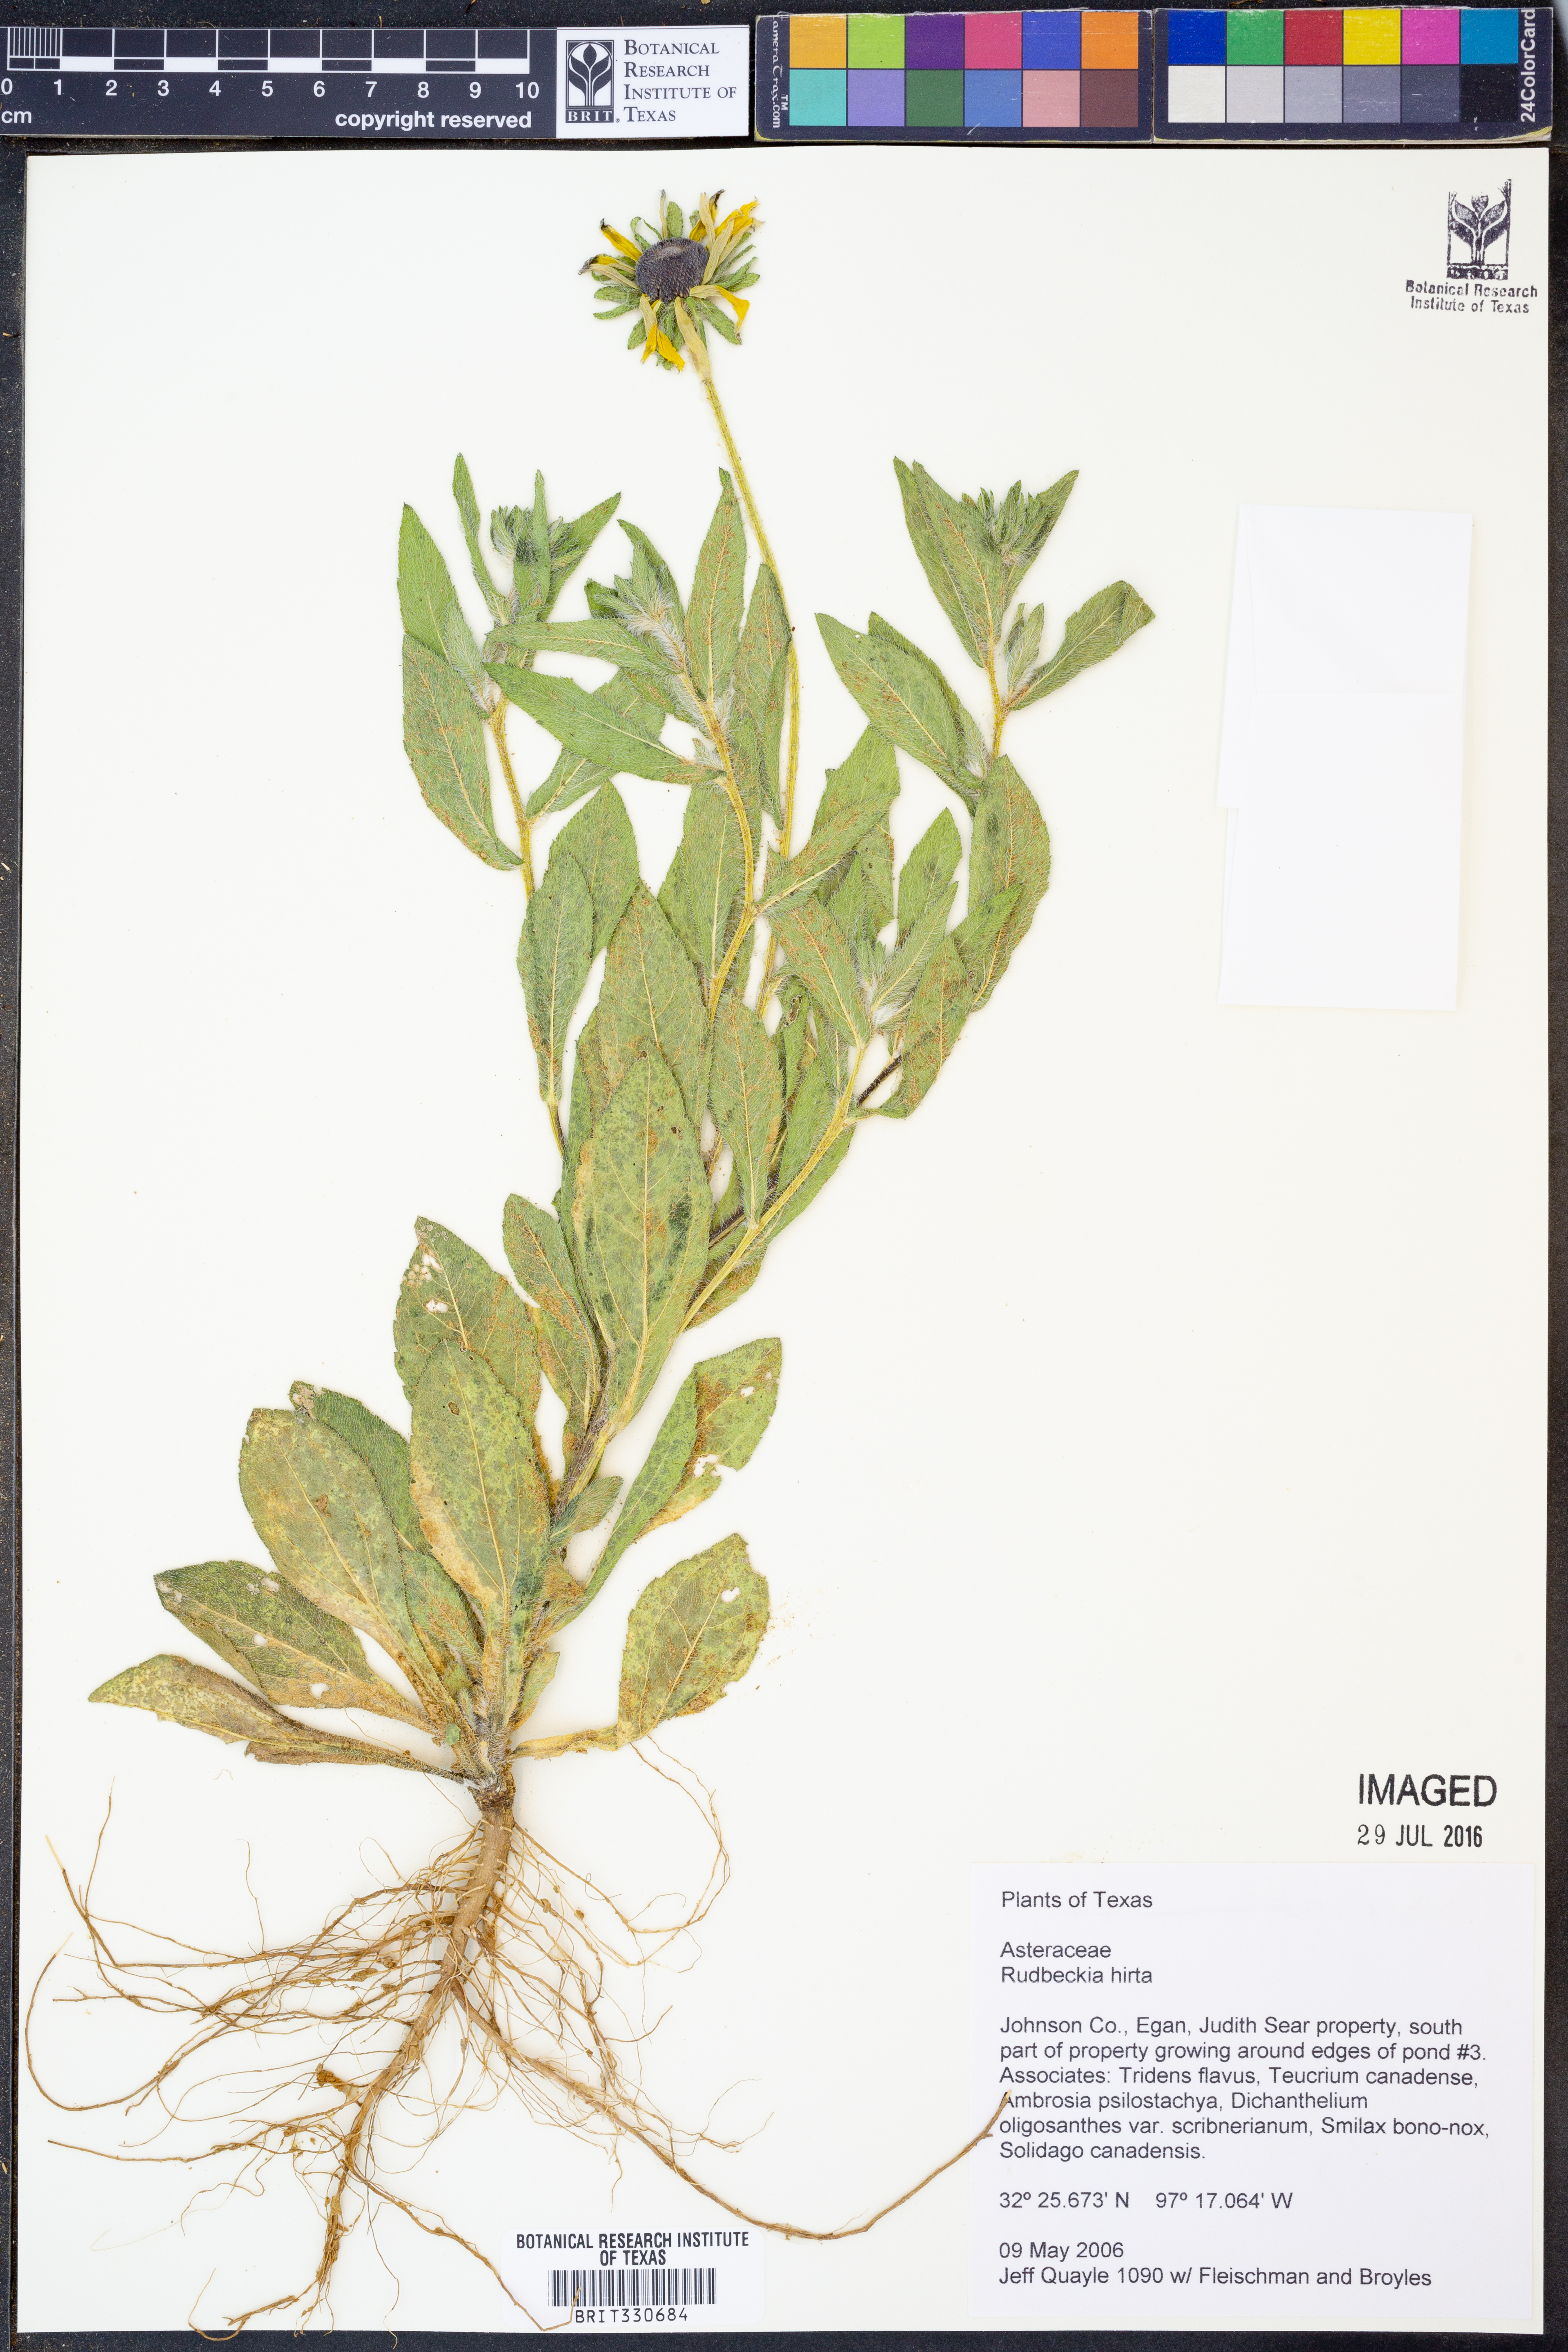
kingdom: Plantae
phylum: Tracheophyta
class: Magnoliopsida
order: Asterales
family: Asteraceae
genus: Rudbeckia
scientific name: Rudbeckia hirta
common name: Black-eyed-susan
